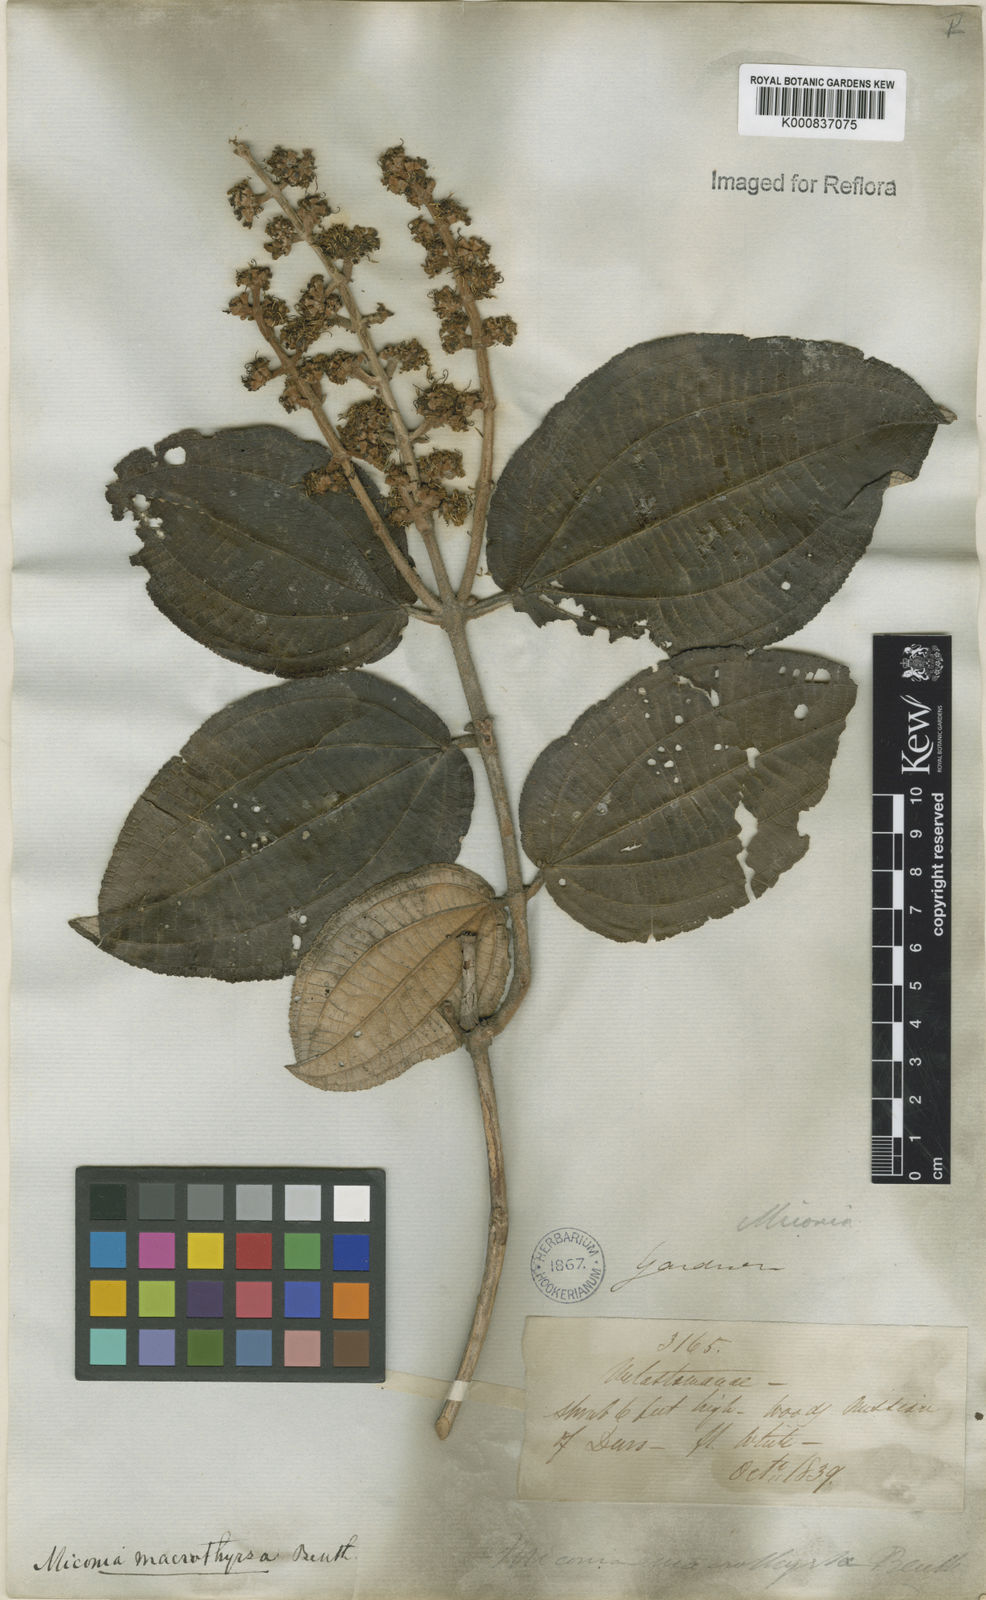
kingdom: Plantae
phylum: Tracheophyta
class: Magnoliopsida
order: Myrtales
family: Melastomataceae
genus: Miconia
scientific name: Miconia macrothyrsa
